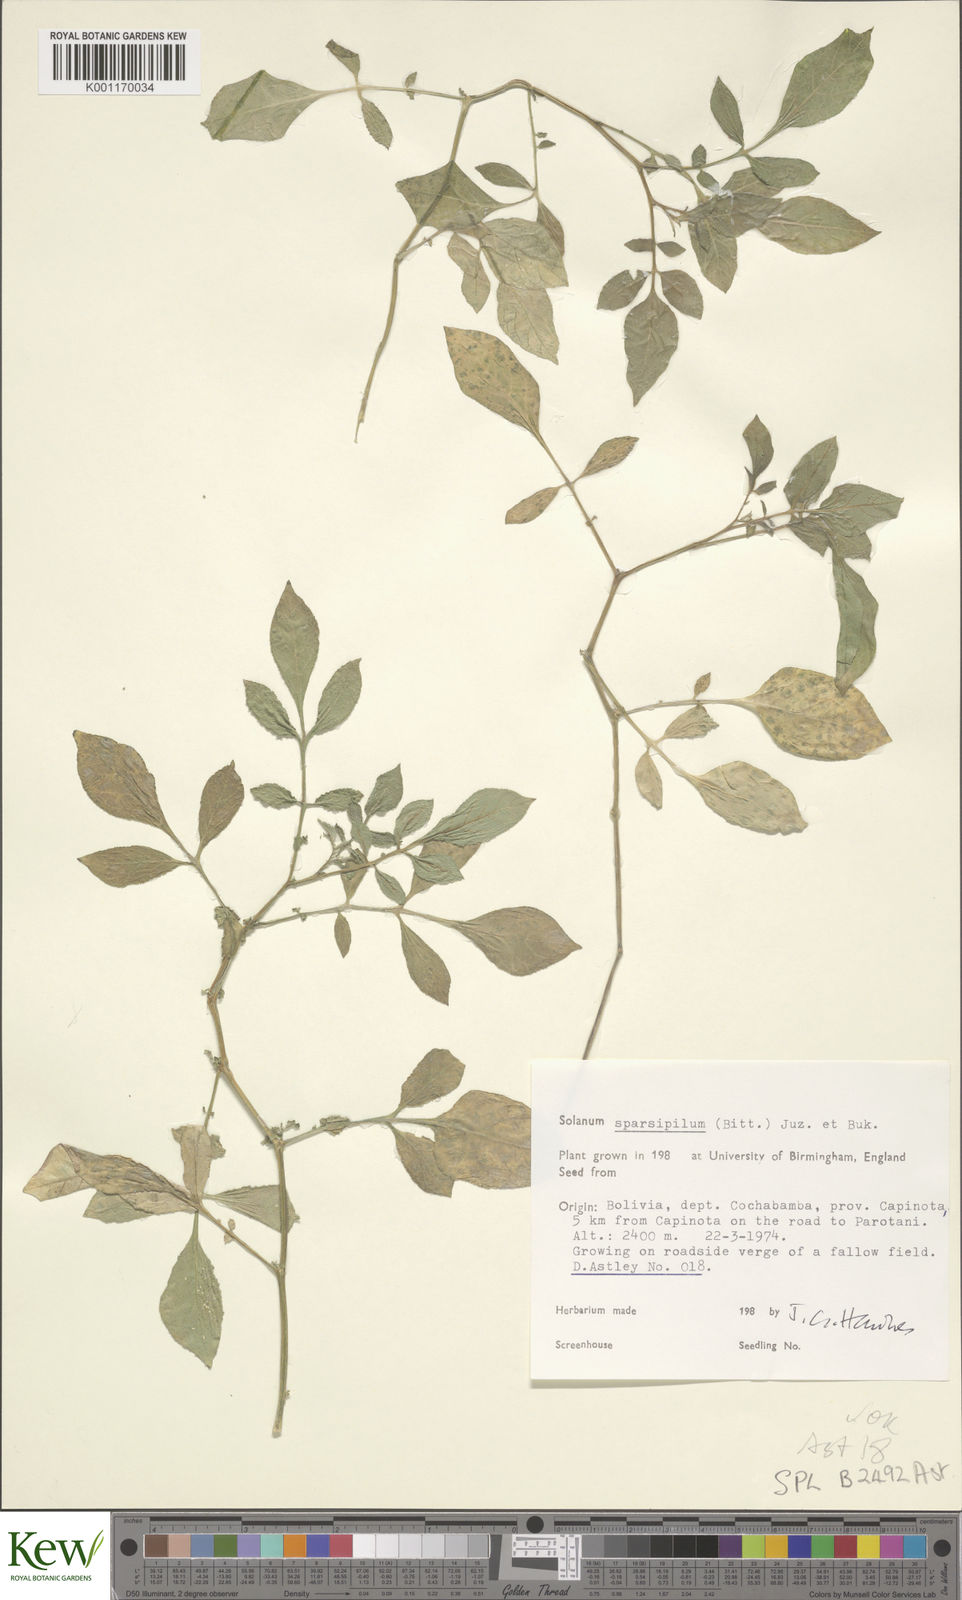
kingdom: Plantae
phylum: Tracheophyta
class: Magnoliopsida
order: Solanales
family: Solanaceae
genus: Solanum
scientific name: Solanum brevicaule
